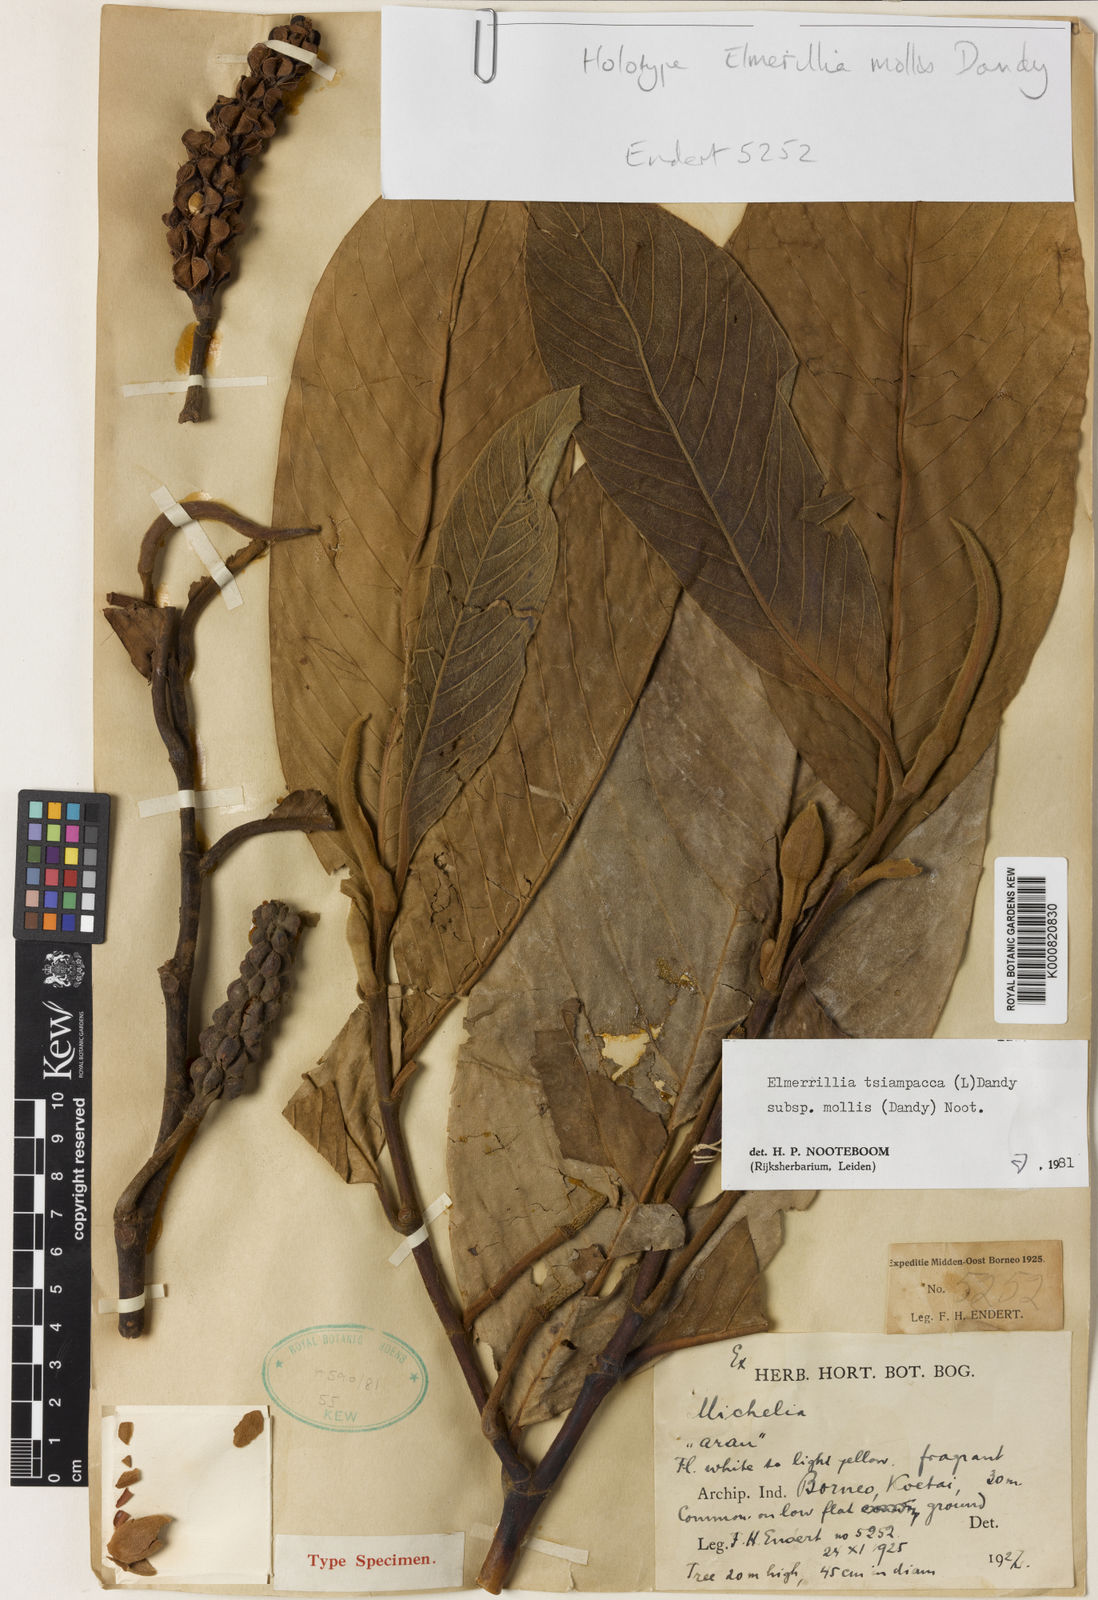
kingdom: Plantae
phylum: Tracheophyta
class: Magnoliopsida
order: Magnoliales
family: Magnoliaceae
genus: Magnolia
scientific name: Magnolia tsiampacca
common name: Wau-beech
